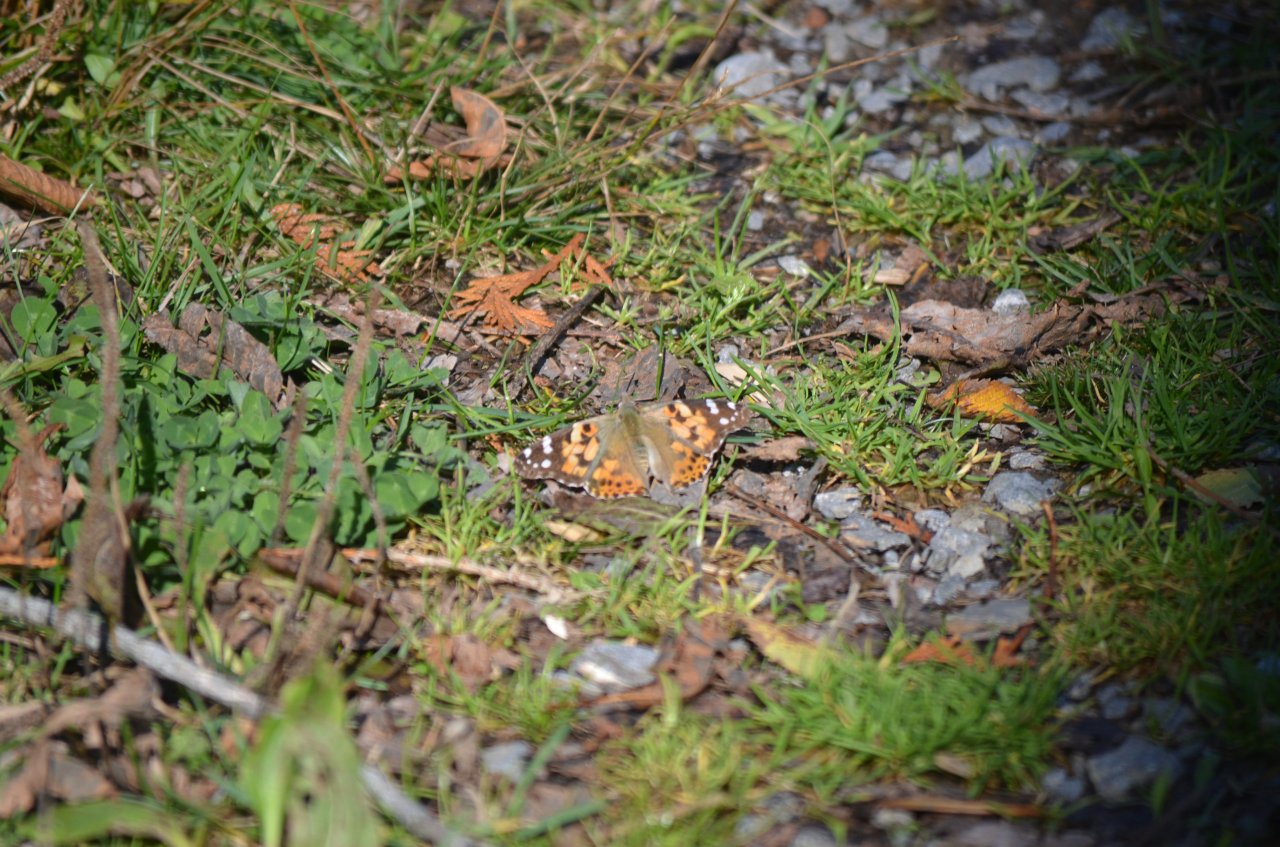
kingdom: Animalia
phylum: Arthropoda
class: Insecta
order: Lepidoptera
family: Nymphalidae
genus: Vanessa
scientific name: Vanessa cardui
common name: Painted Lady
